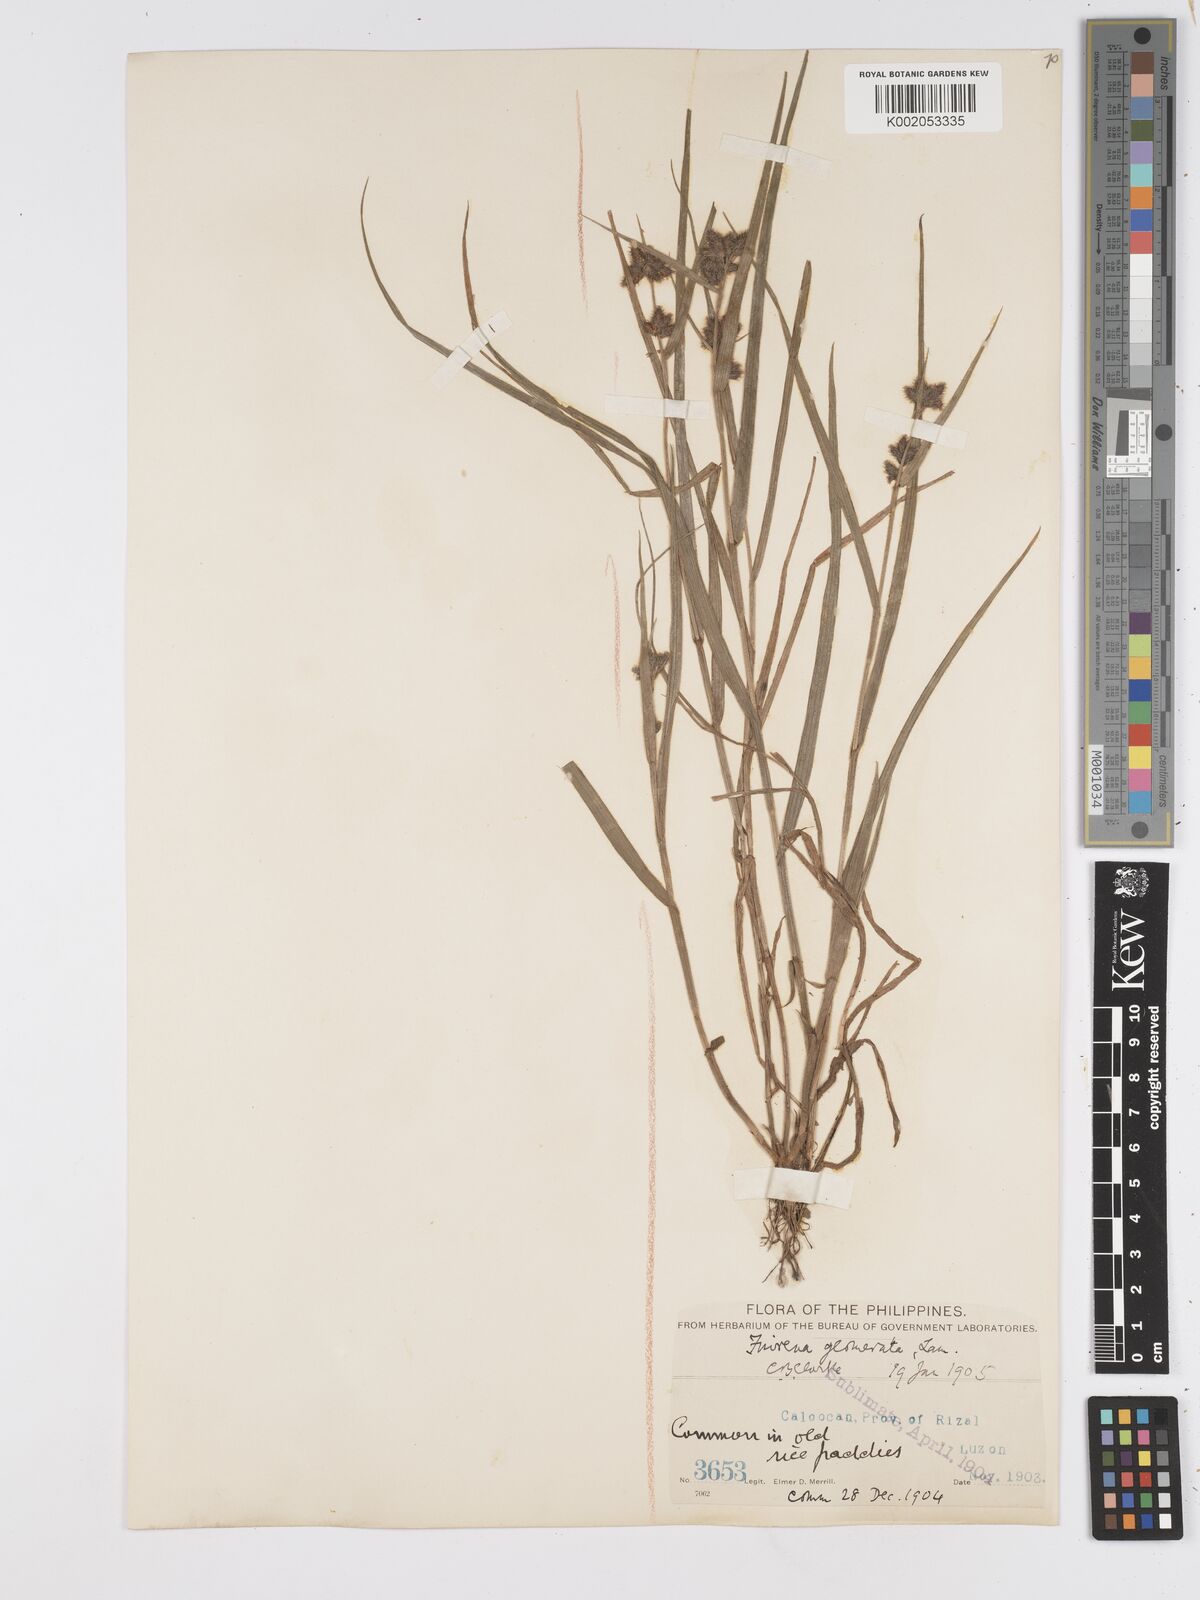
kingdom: Plantae
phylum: Tracheophyta
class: Liliopsida
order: Poales
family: Cyperaceae
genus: Fuirena
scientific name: Fuirena ciliaris
